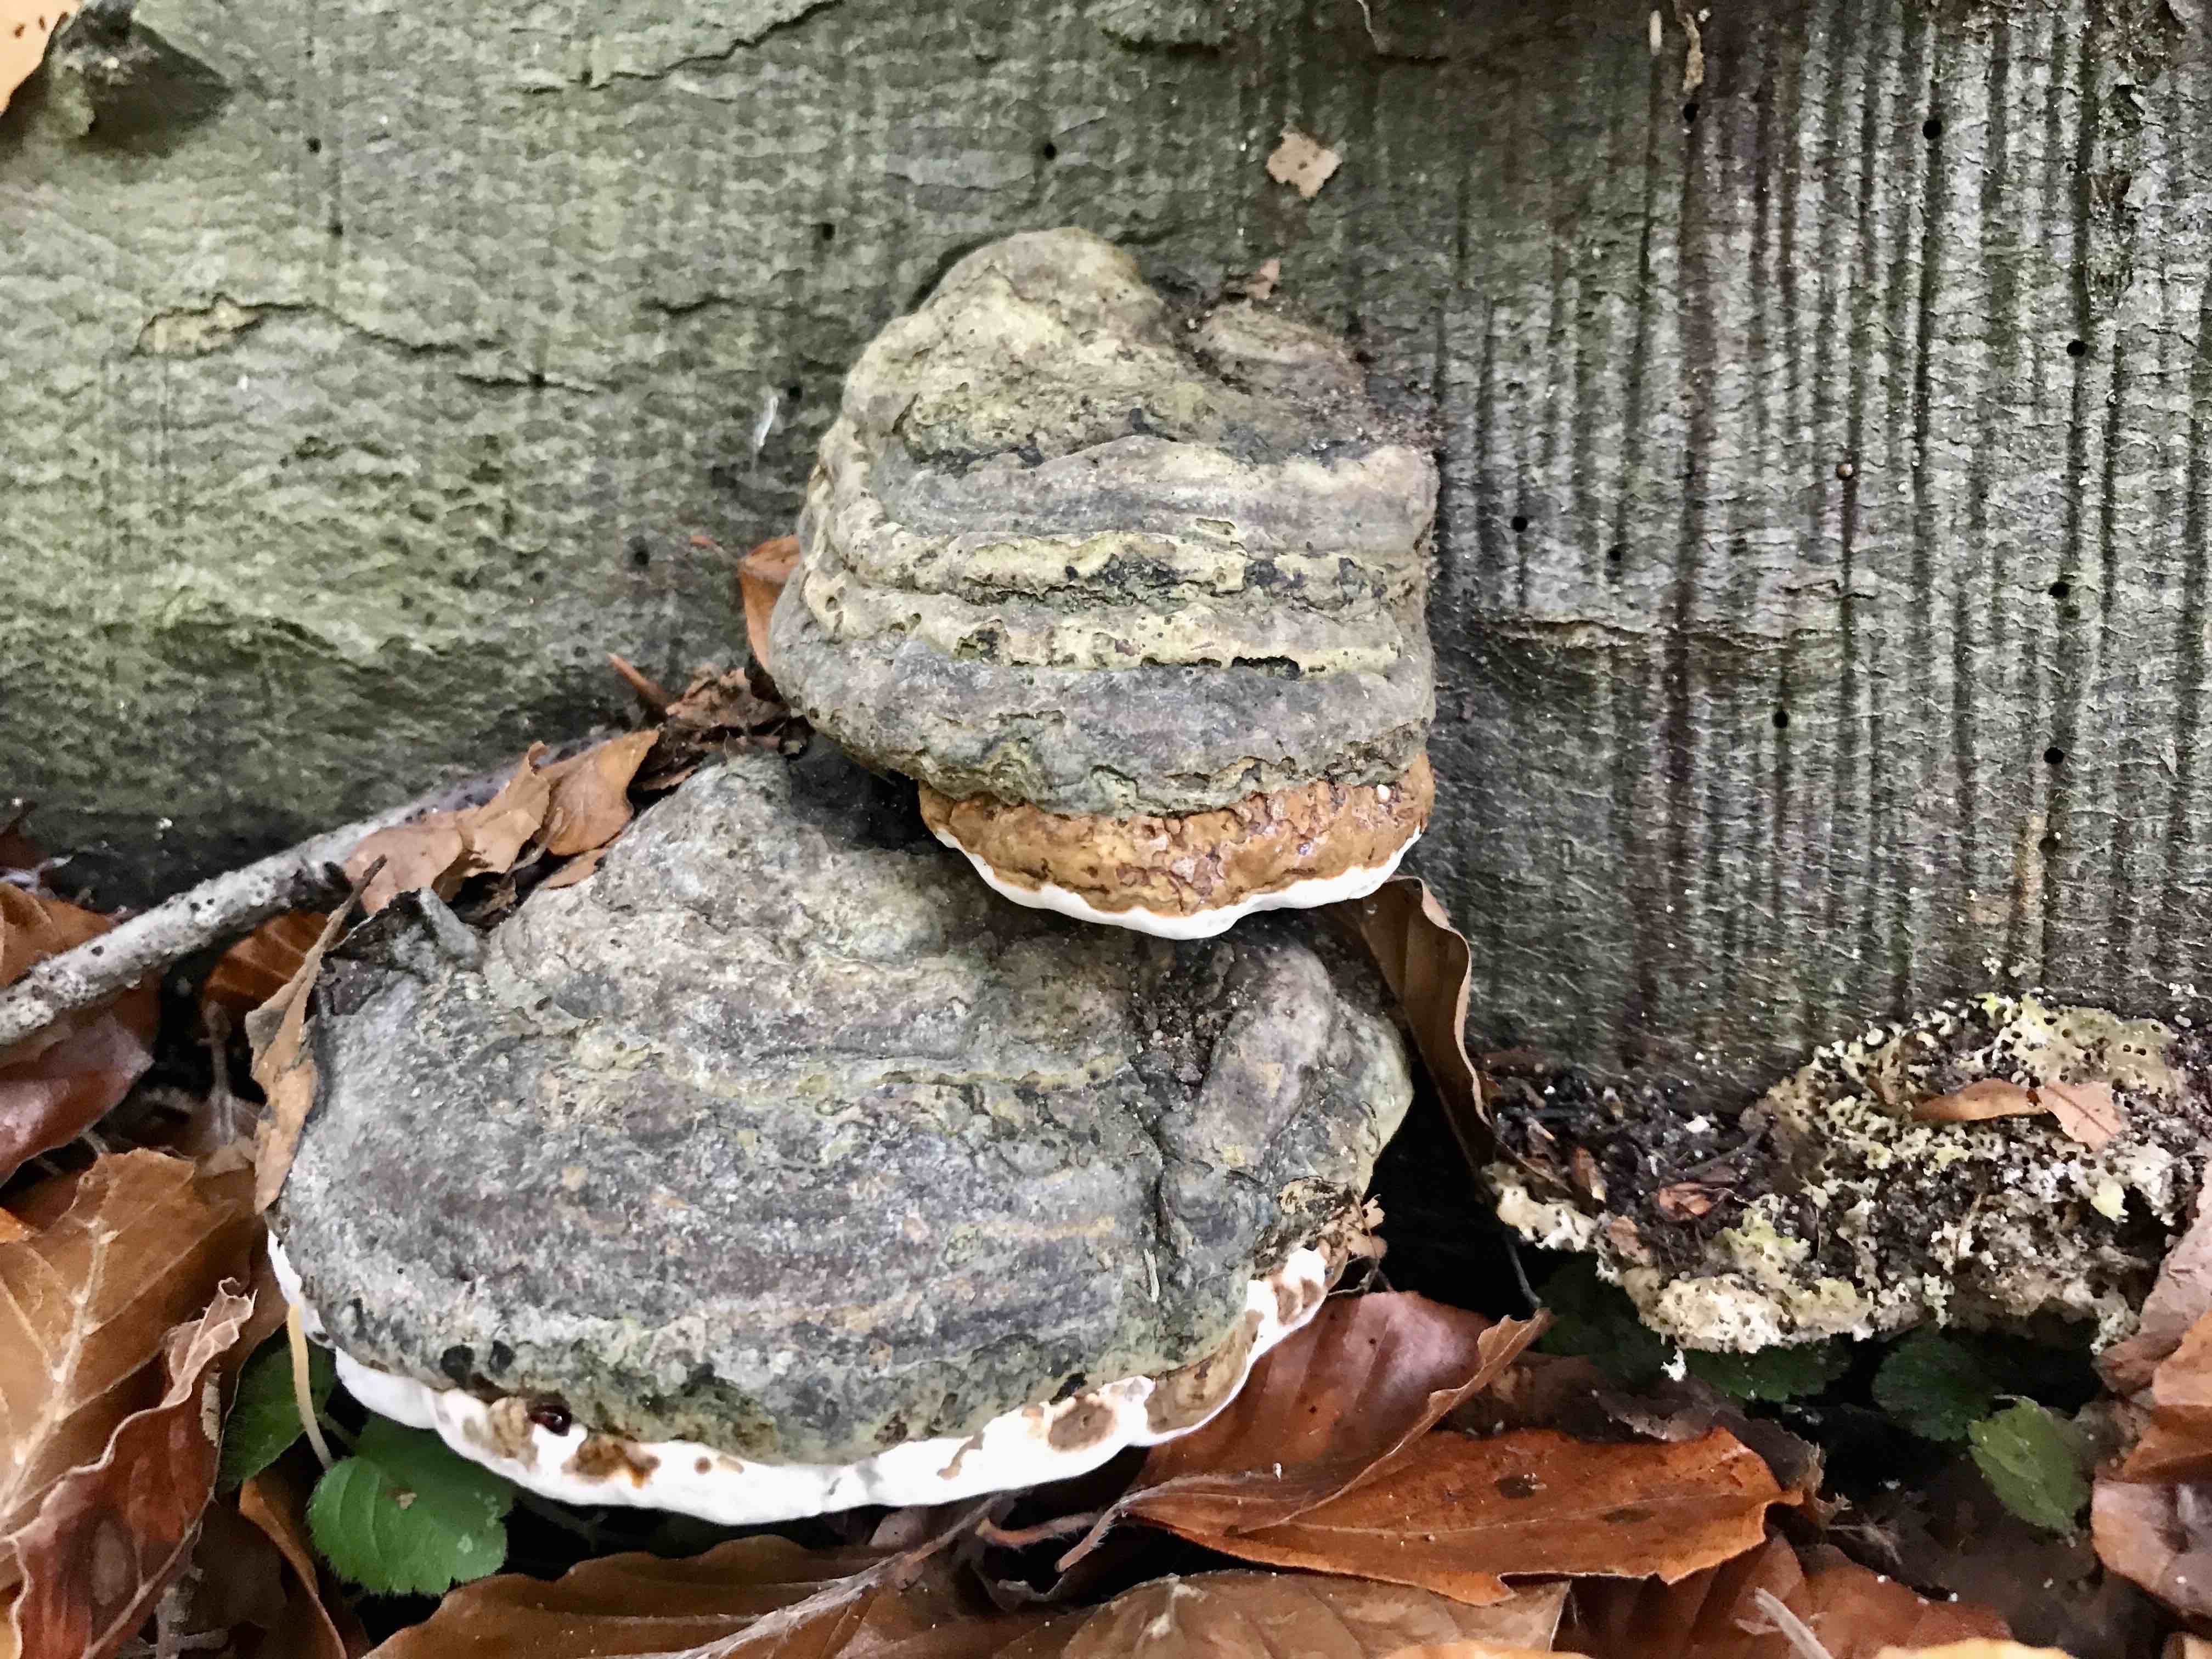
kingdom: Fungi
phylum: Basidiomycota
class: Agaricomycetes
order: Polyporales
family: Polyporaceae
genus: Fomes
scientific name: Fomes fomentarius
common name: tøndersvamp
